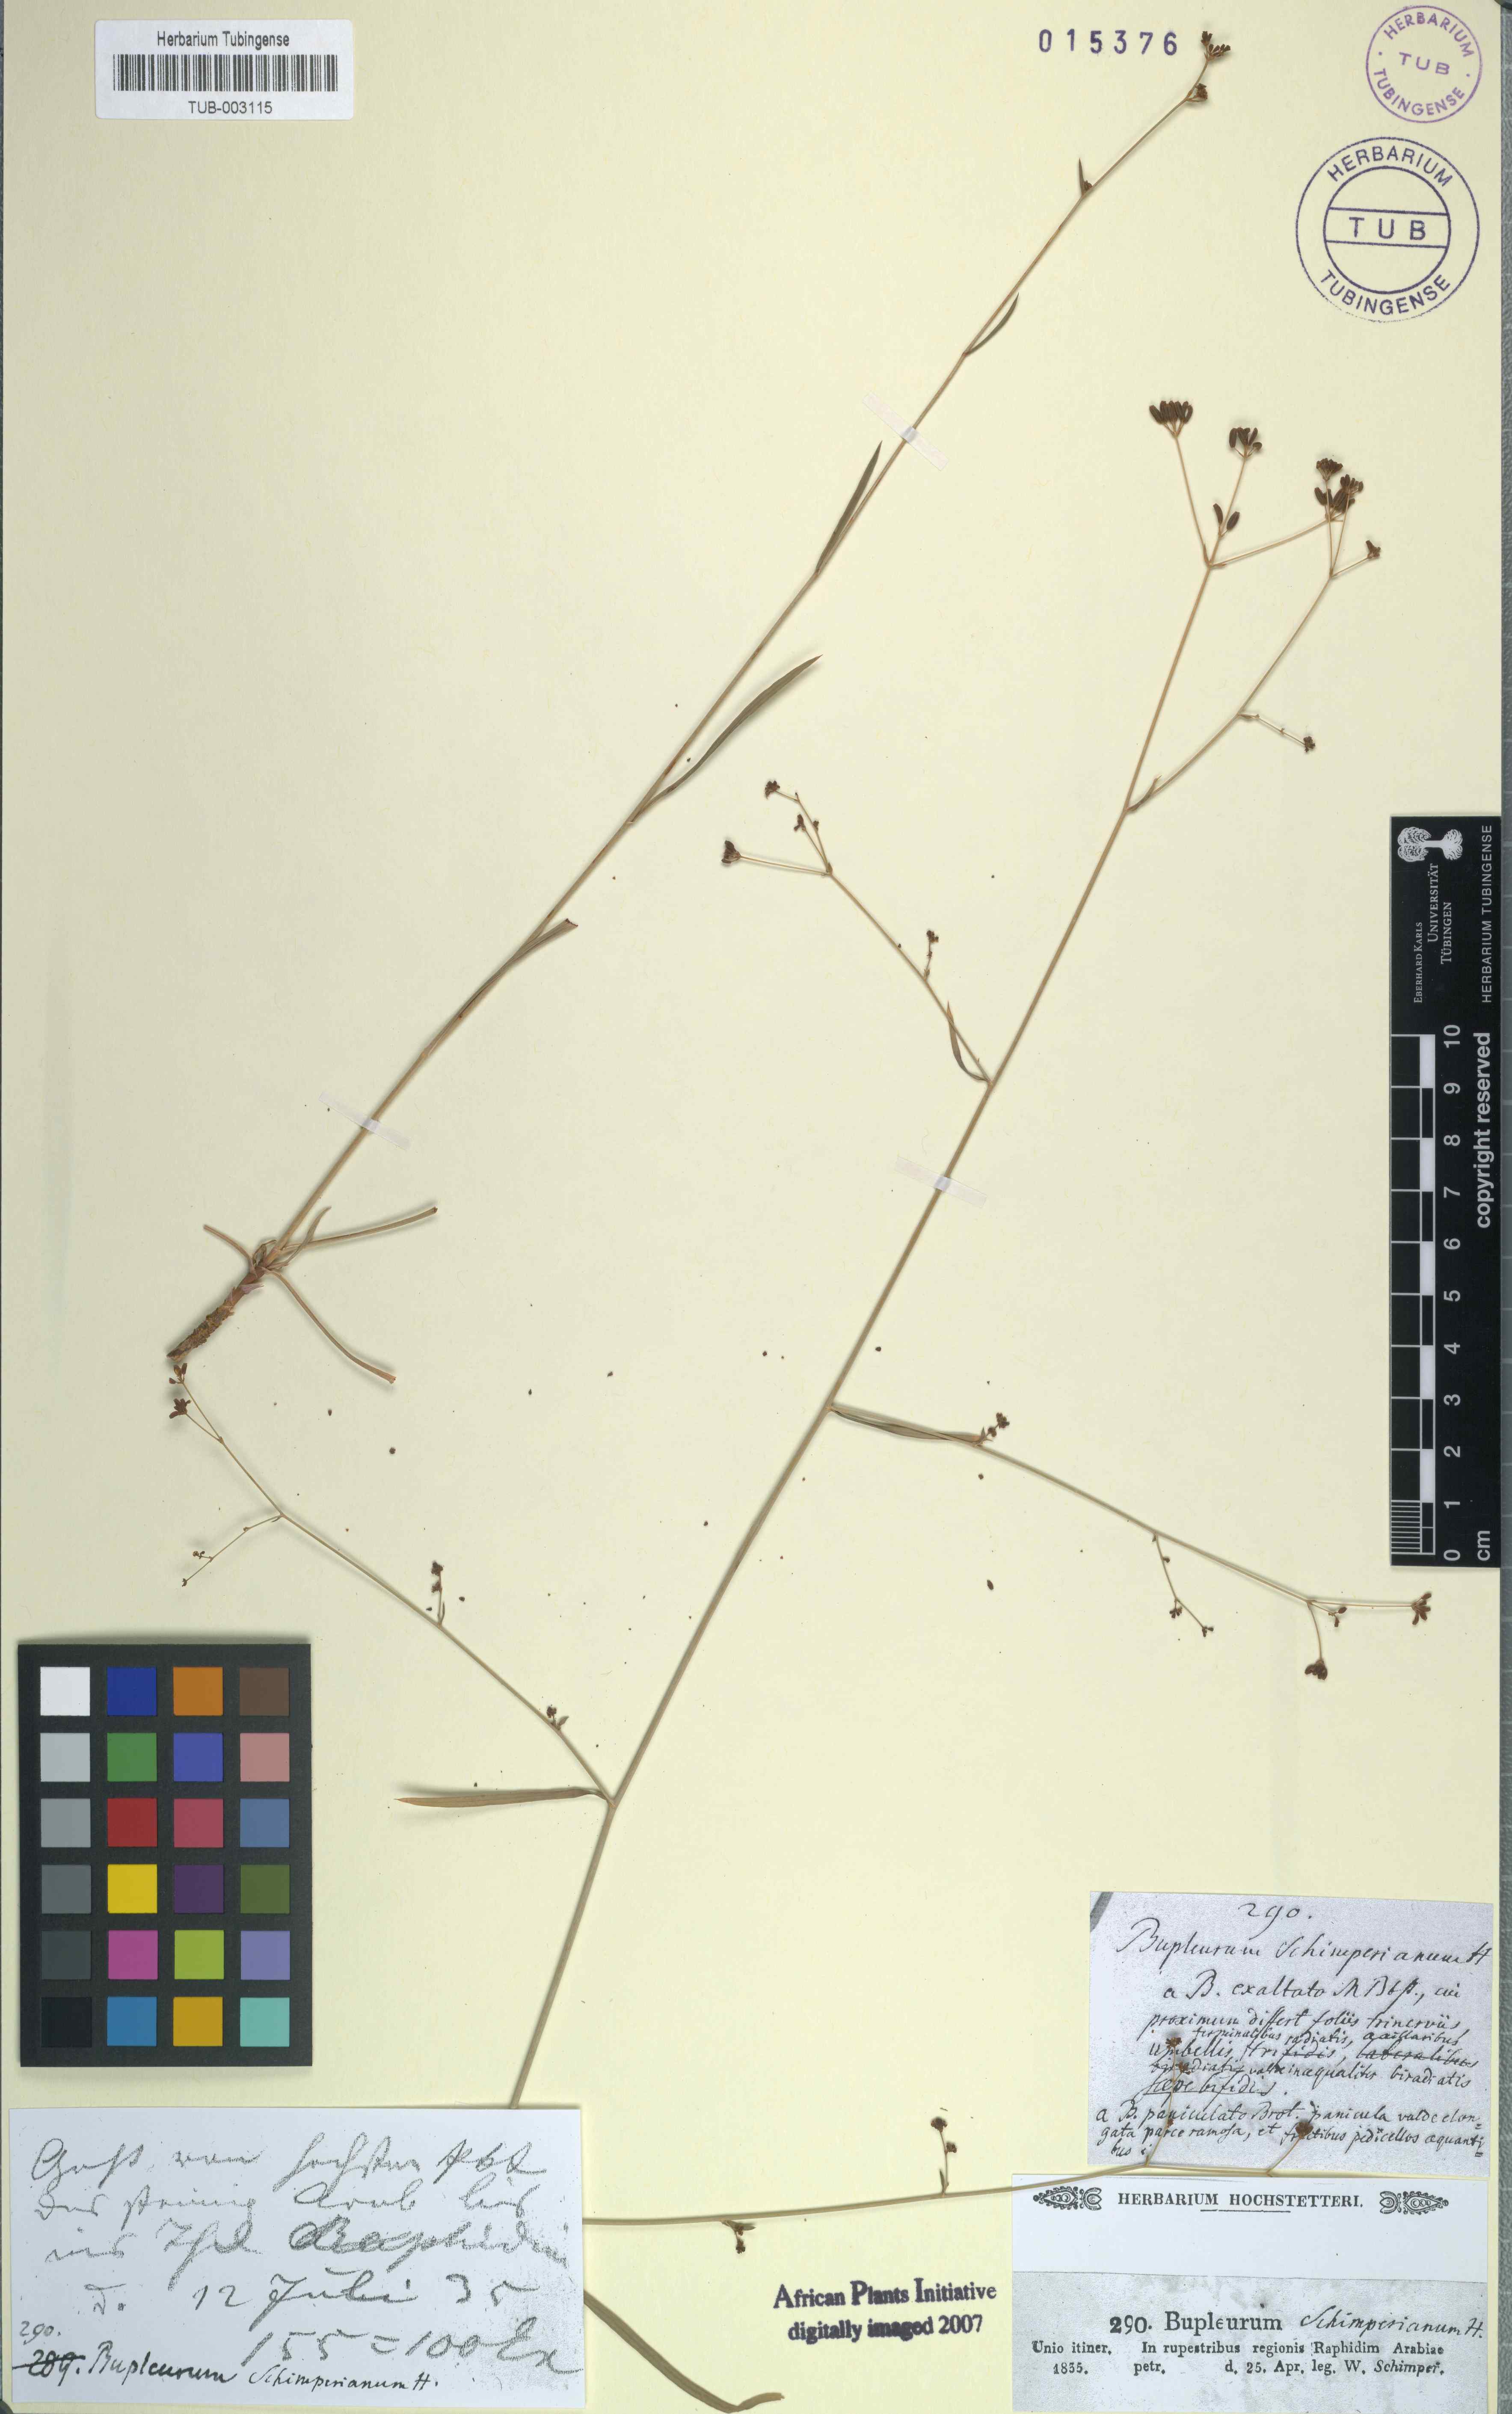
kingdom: Plantae
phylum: Tracheophyta
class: Magnoliopsida
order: Apiales
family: Apiaceae
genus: Bupleurum
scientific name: Bupleurum
